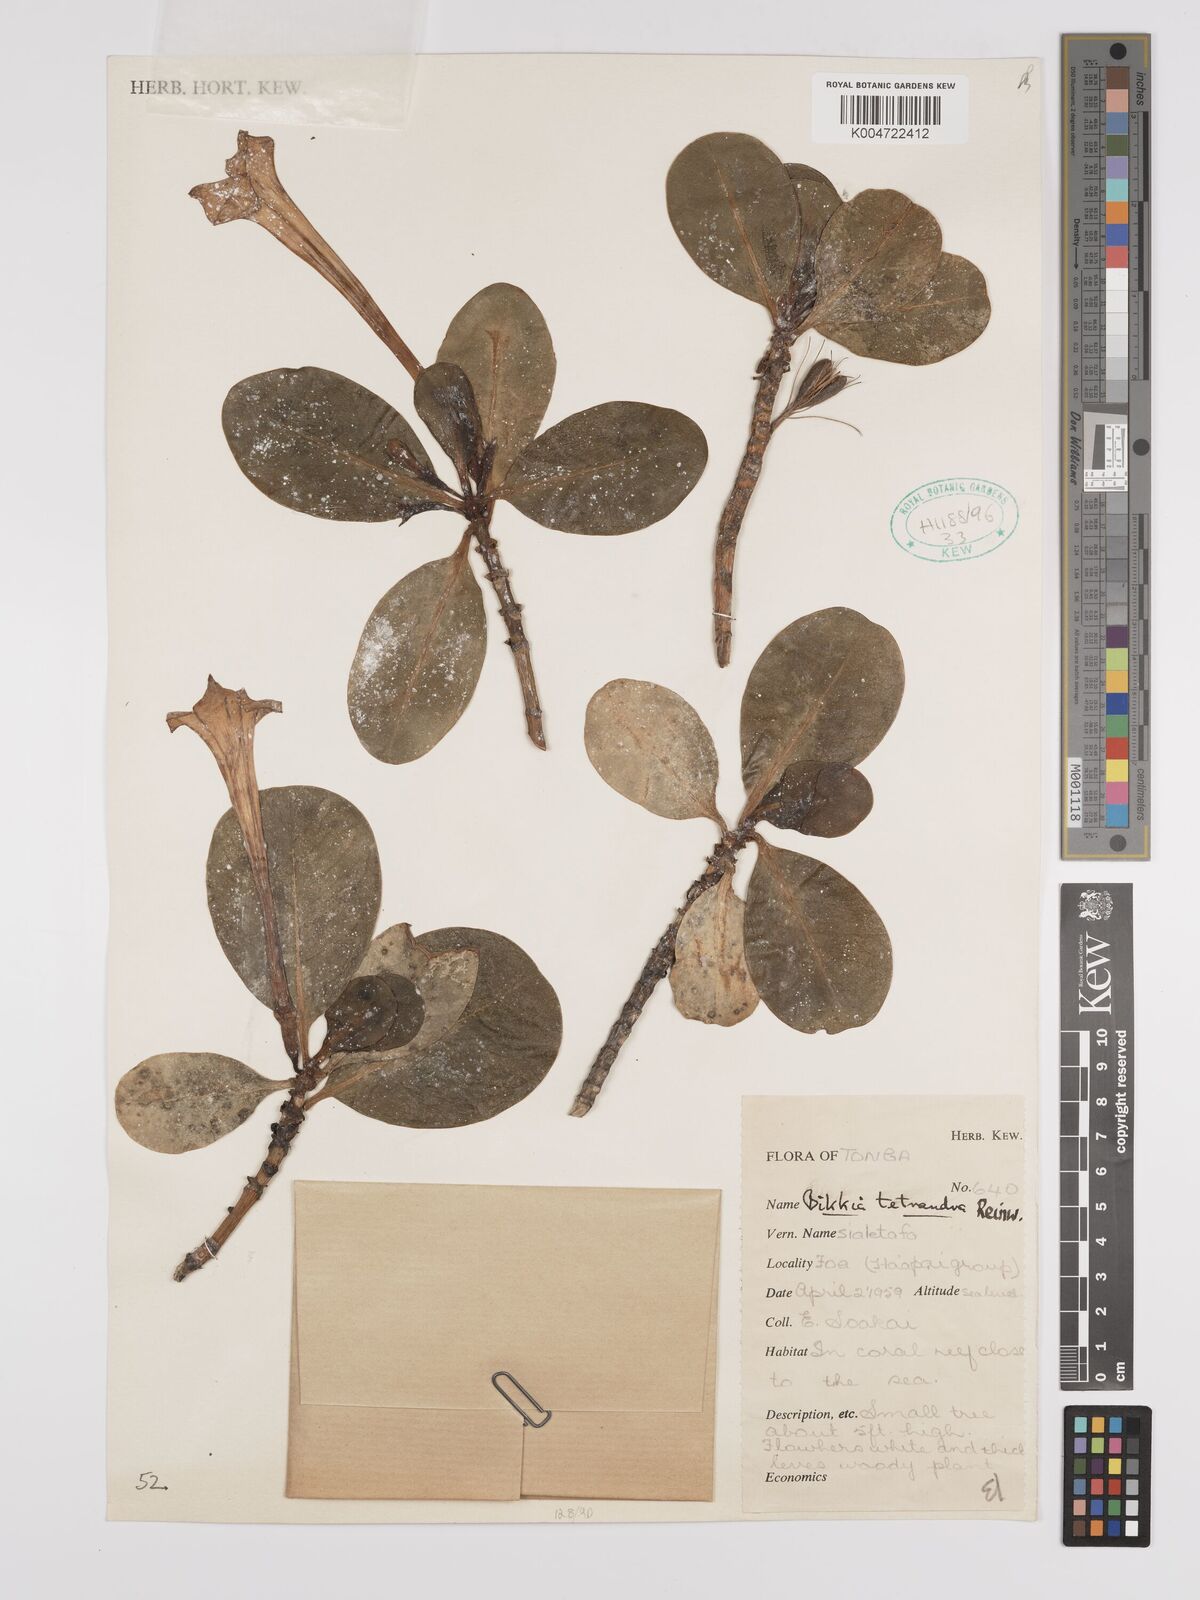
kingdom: Plantae
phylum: Tracheophyta
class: Magnoliopsida
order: Gentianales
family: Rubiaceae
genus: Bikkia
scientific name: Bikkia
